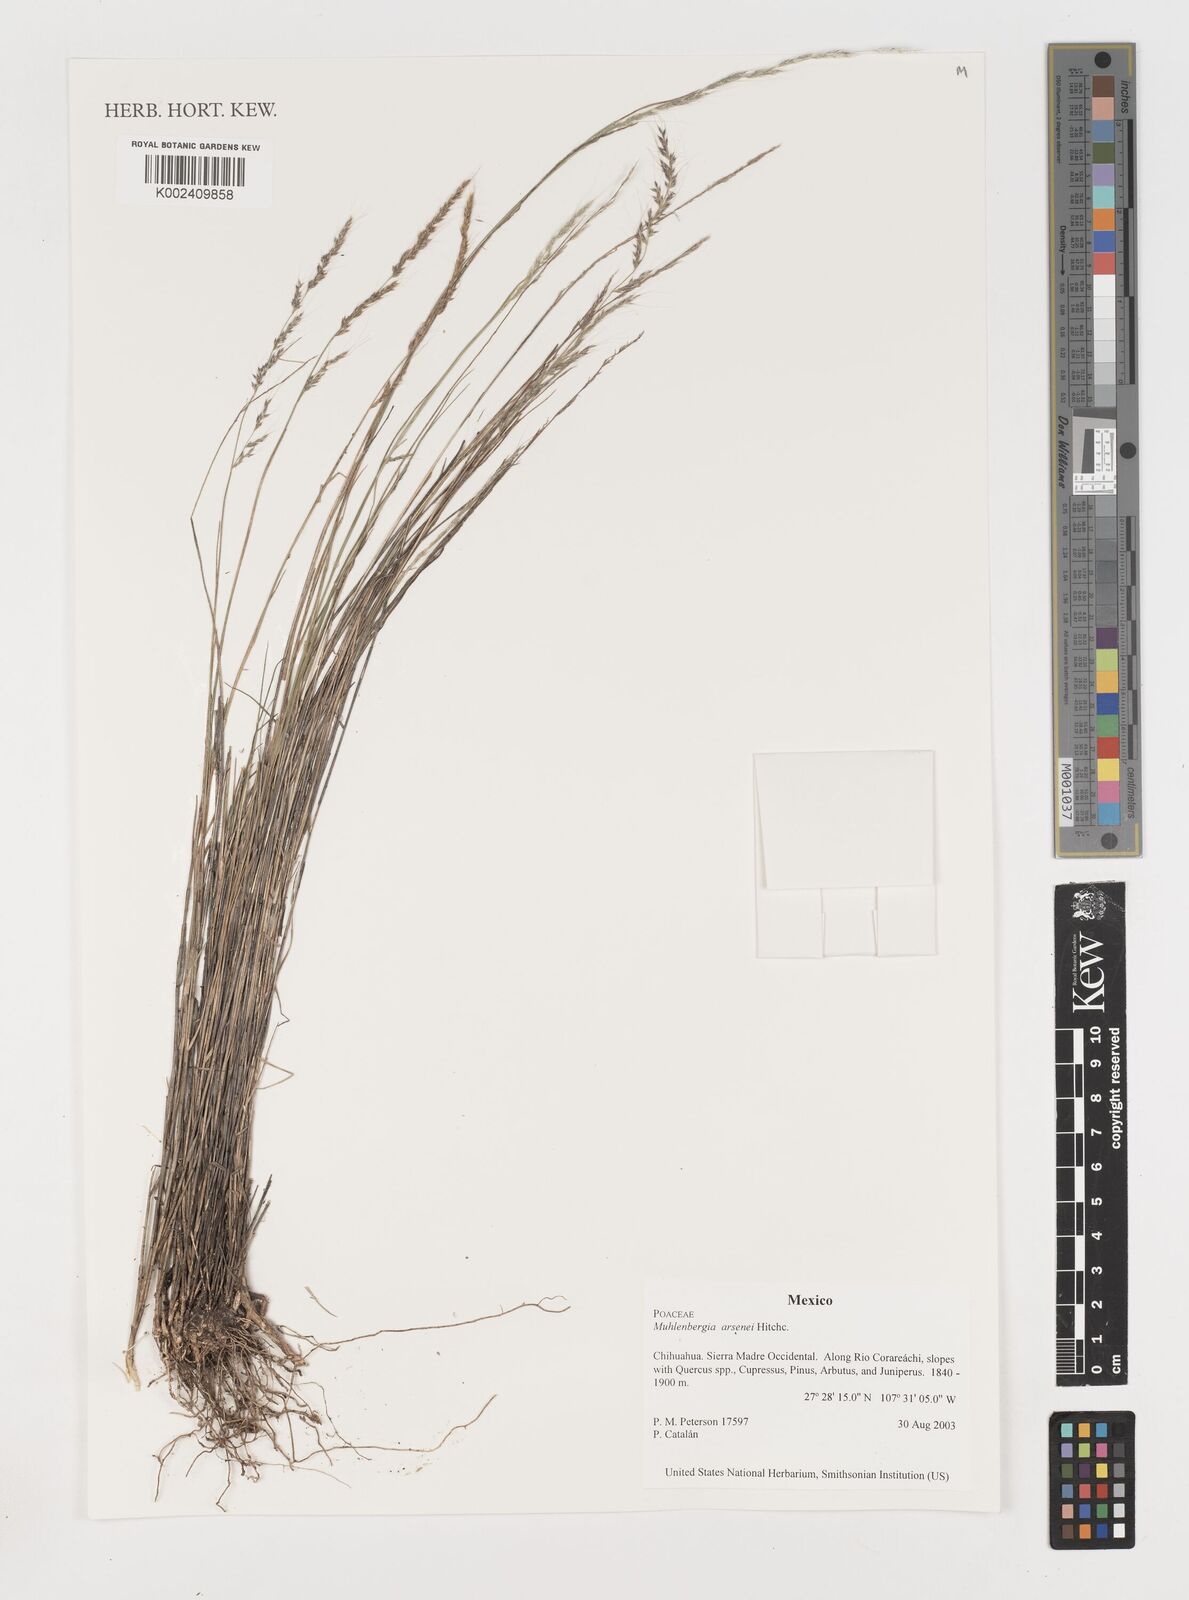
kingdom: Plantae
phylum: Tracheophyta
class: Liliopsida
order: Poales
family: Poaceae
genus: Muhlenbergia
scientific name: Muhlenbergia arsenei
